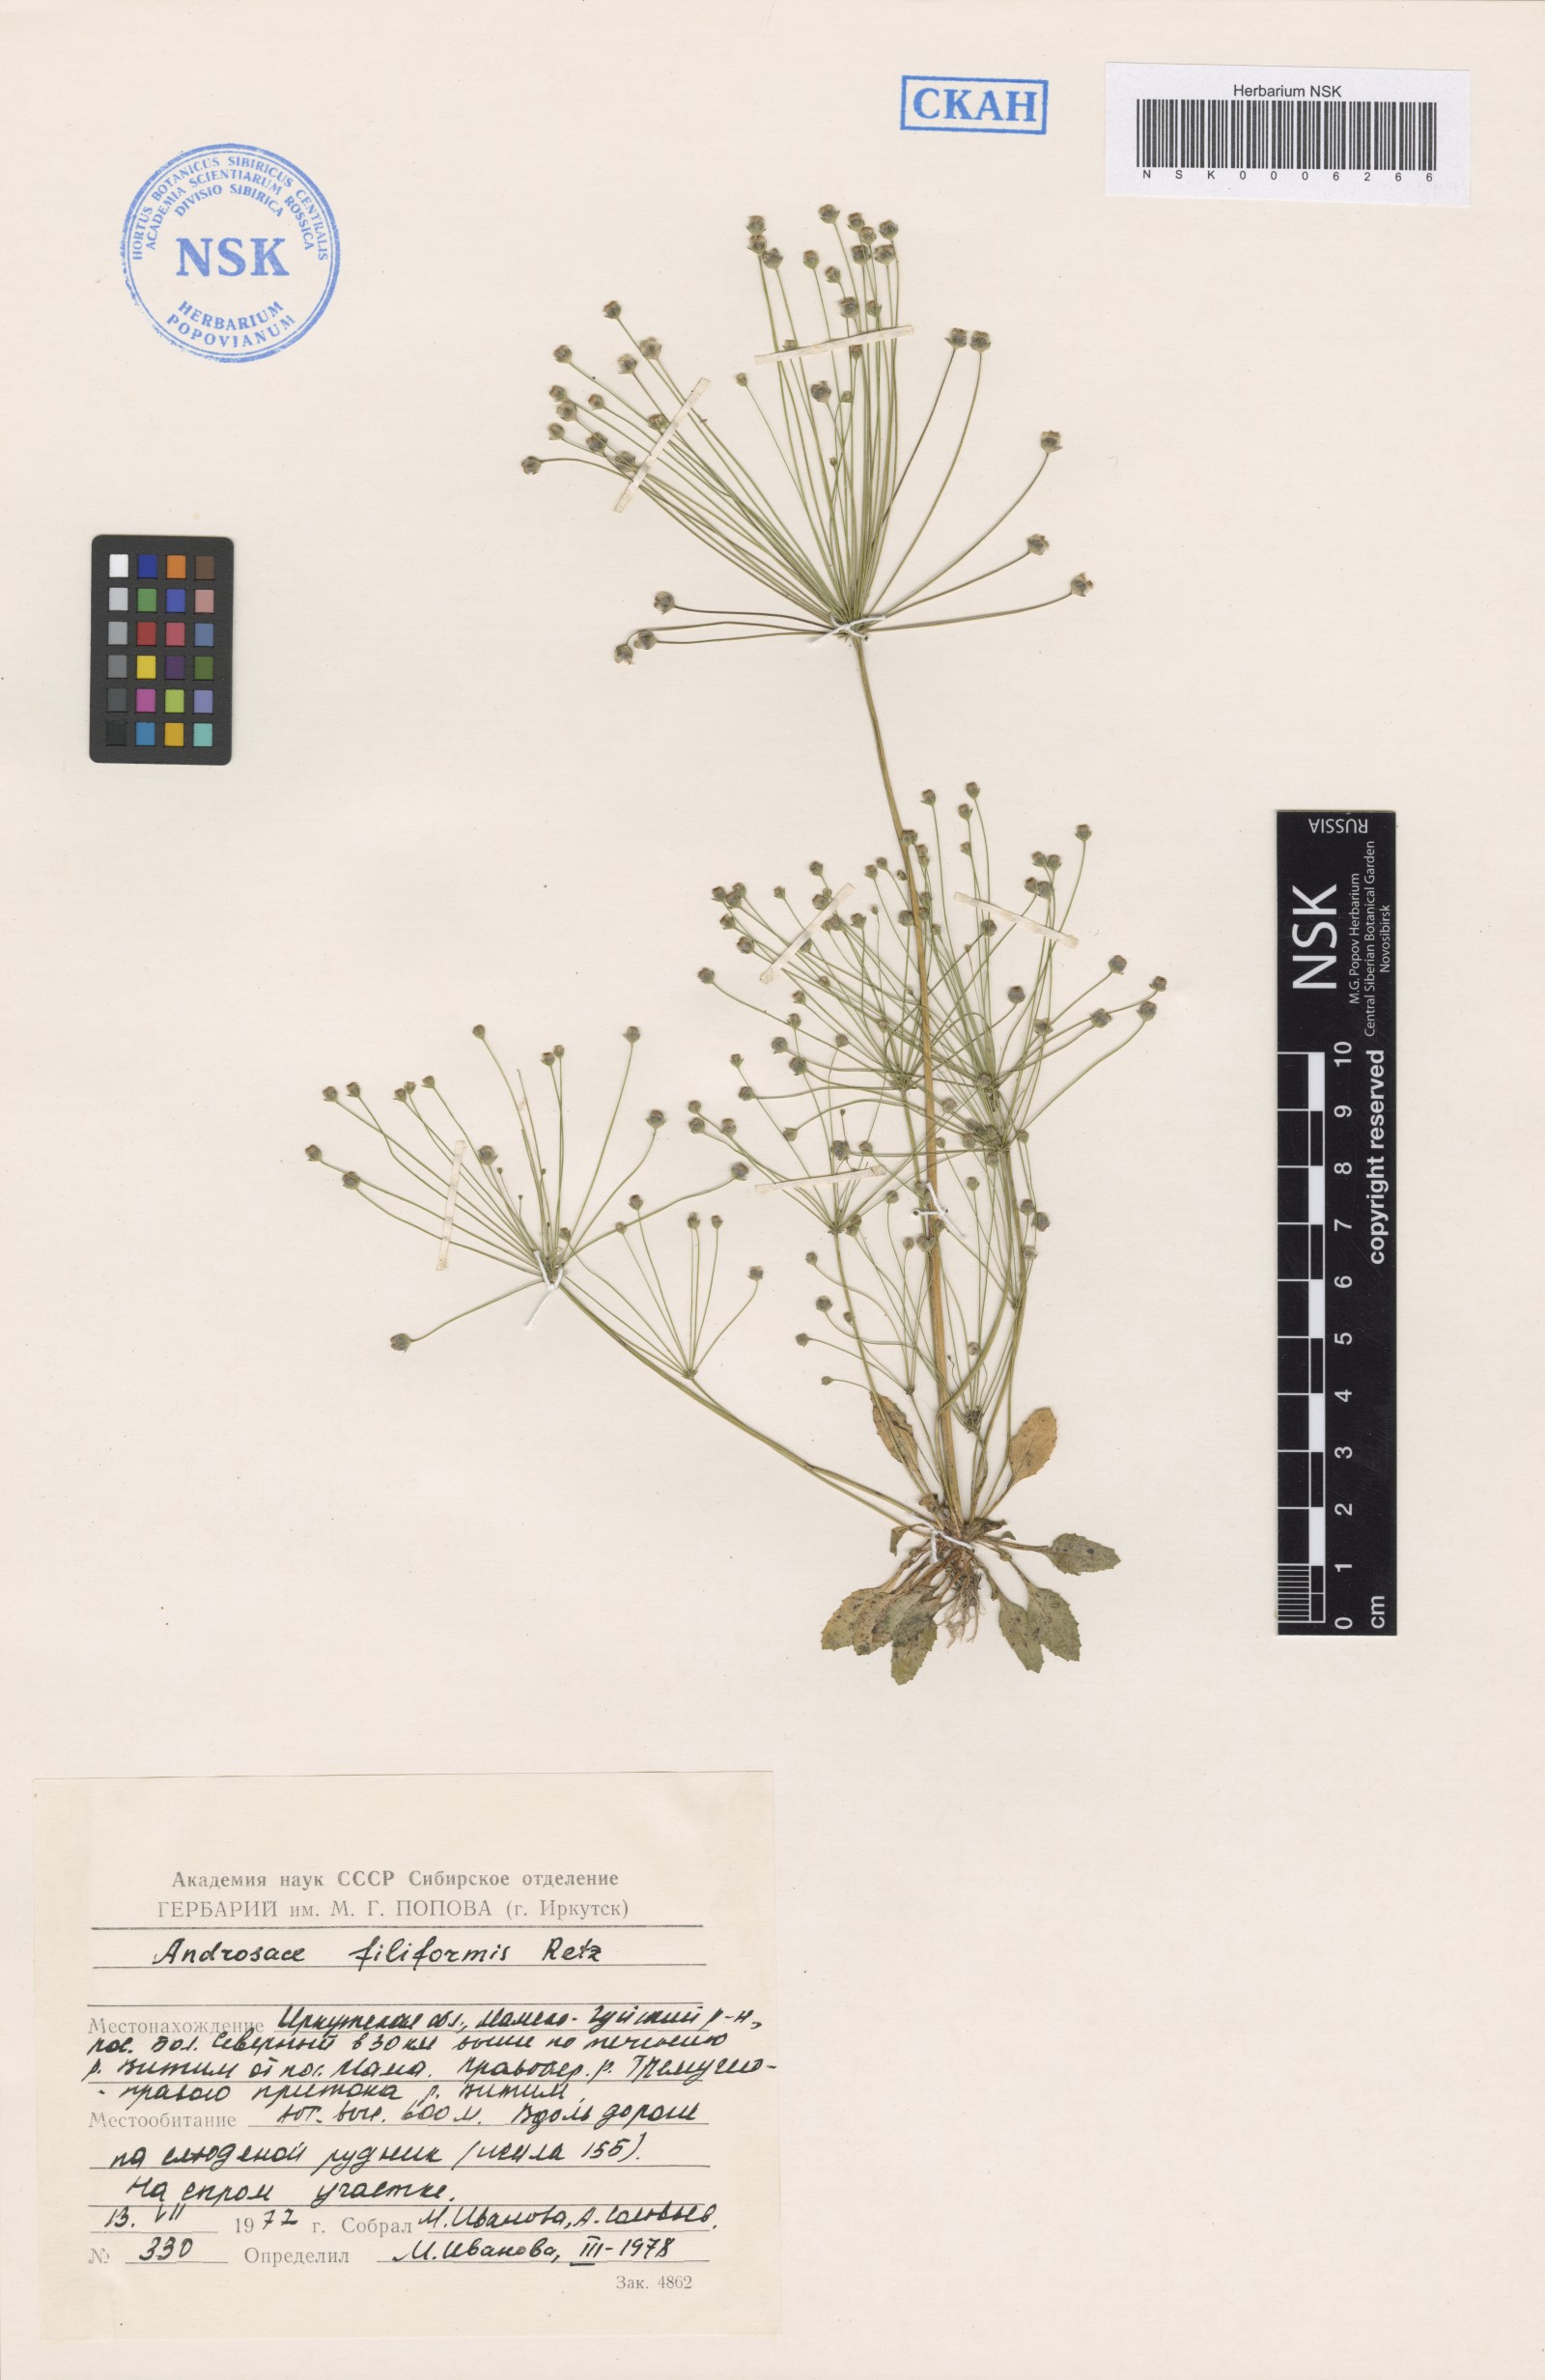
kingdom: Plantae
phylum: Tracheophyta
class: Magnoliopsida
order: Ericales
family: Primulaceae
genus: Androsace
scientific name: Androsace filiformis
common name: Filiform rock jasmine
